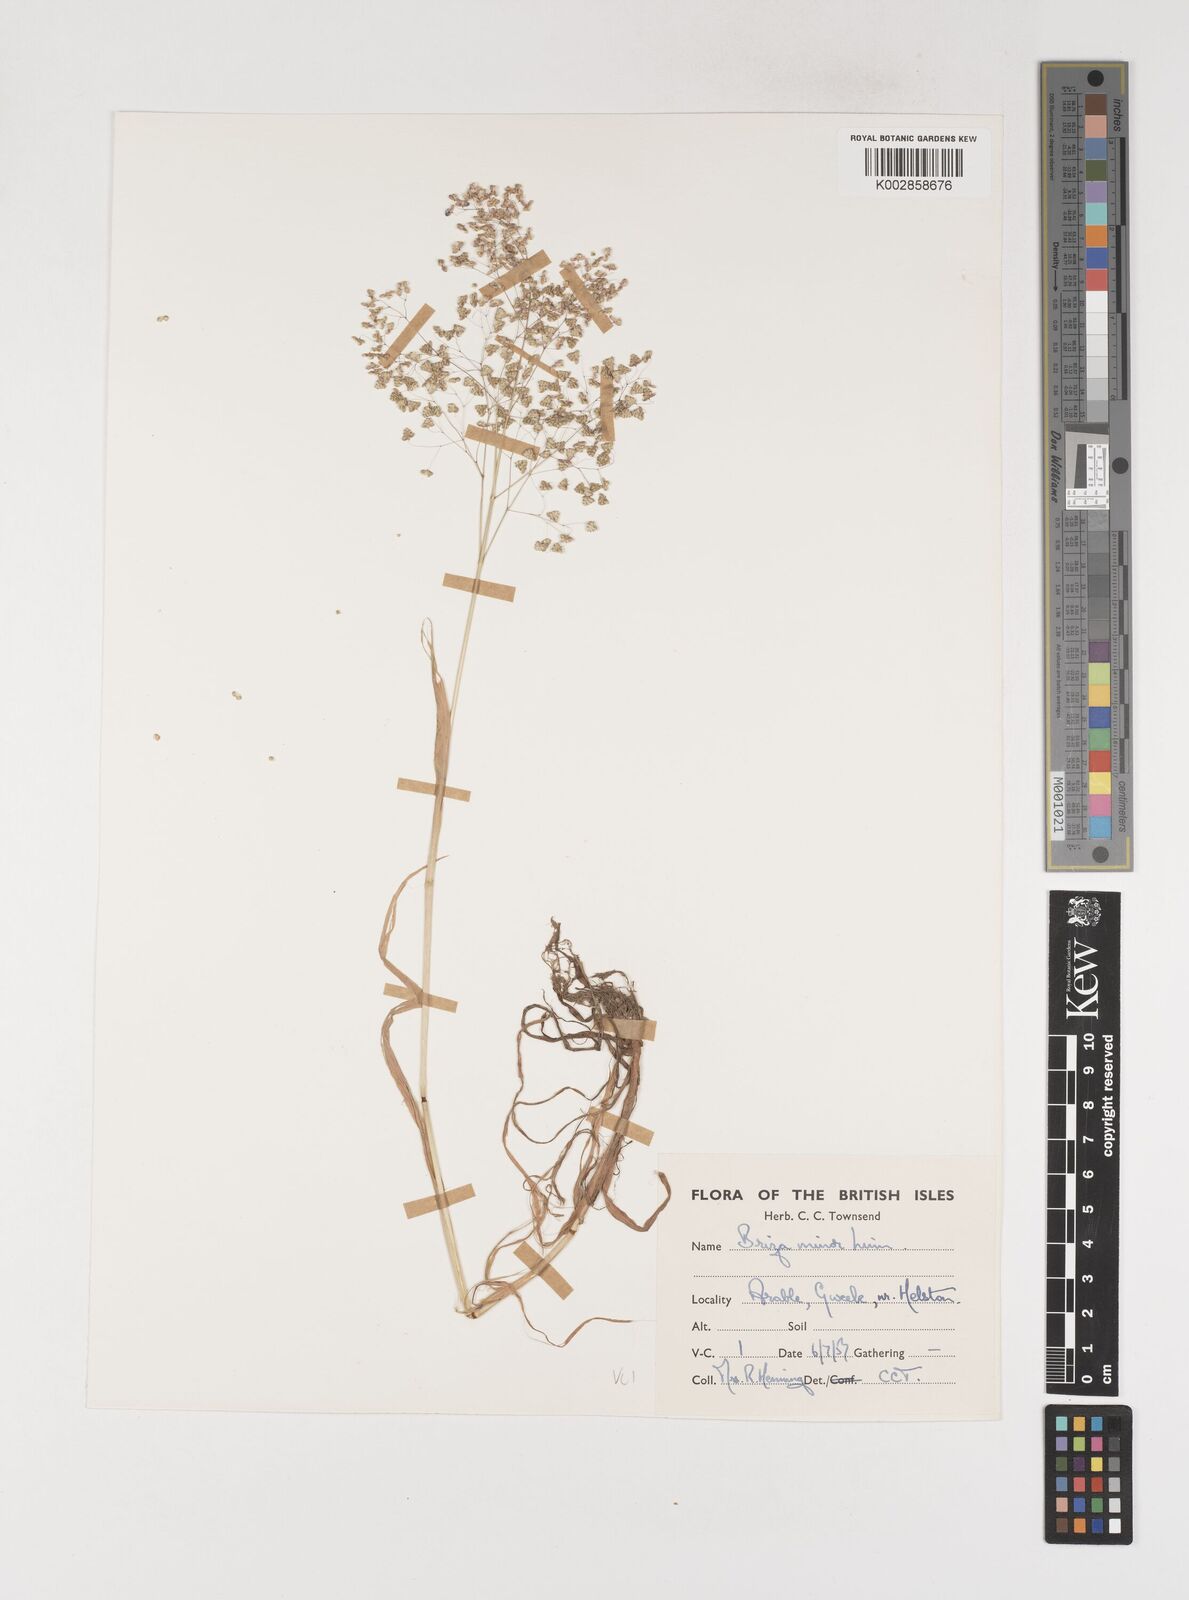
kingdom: Plantae
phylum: Tracheophyta
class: Liliopsida
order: Poales
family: Poaceae
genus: Briza
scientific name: Briza minor
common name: Lesser quaking-grass
